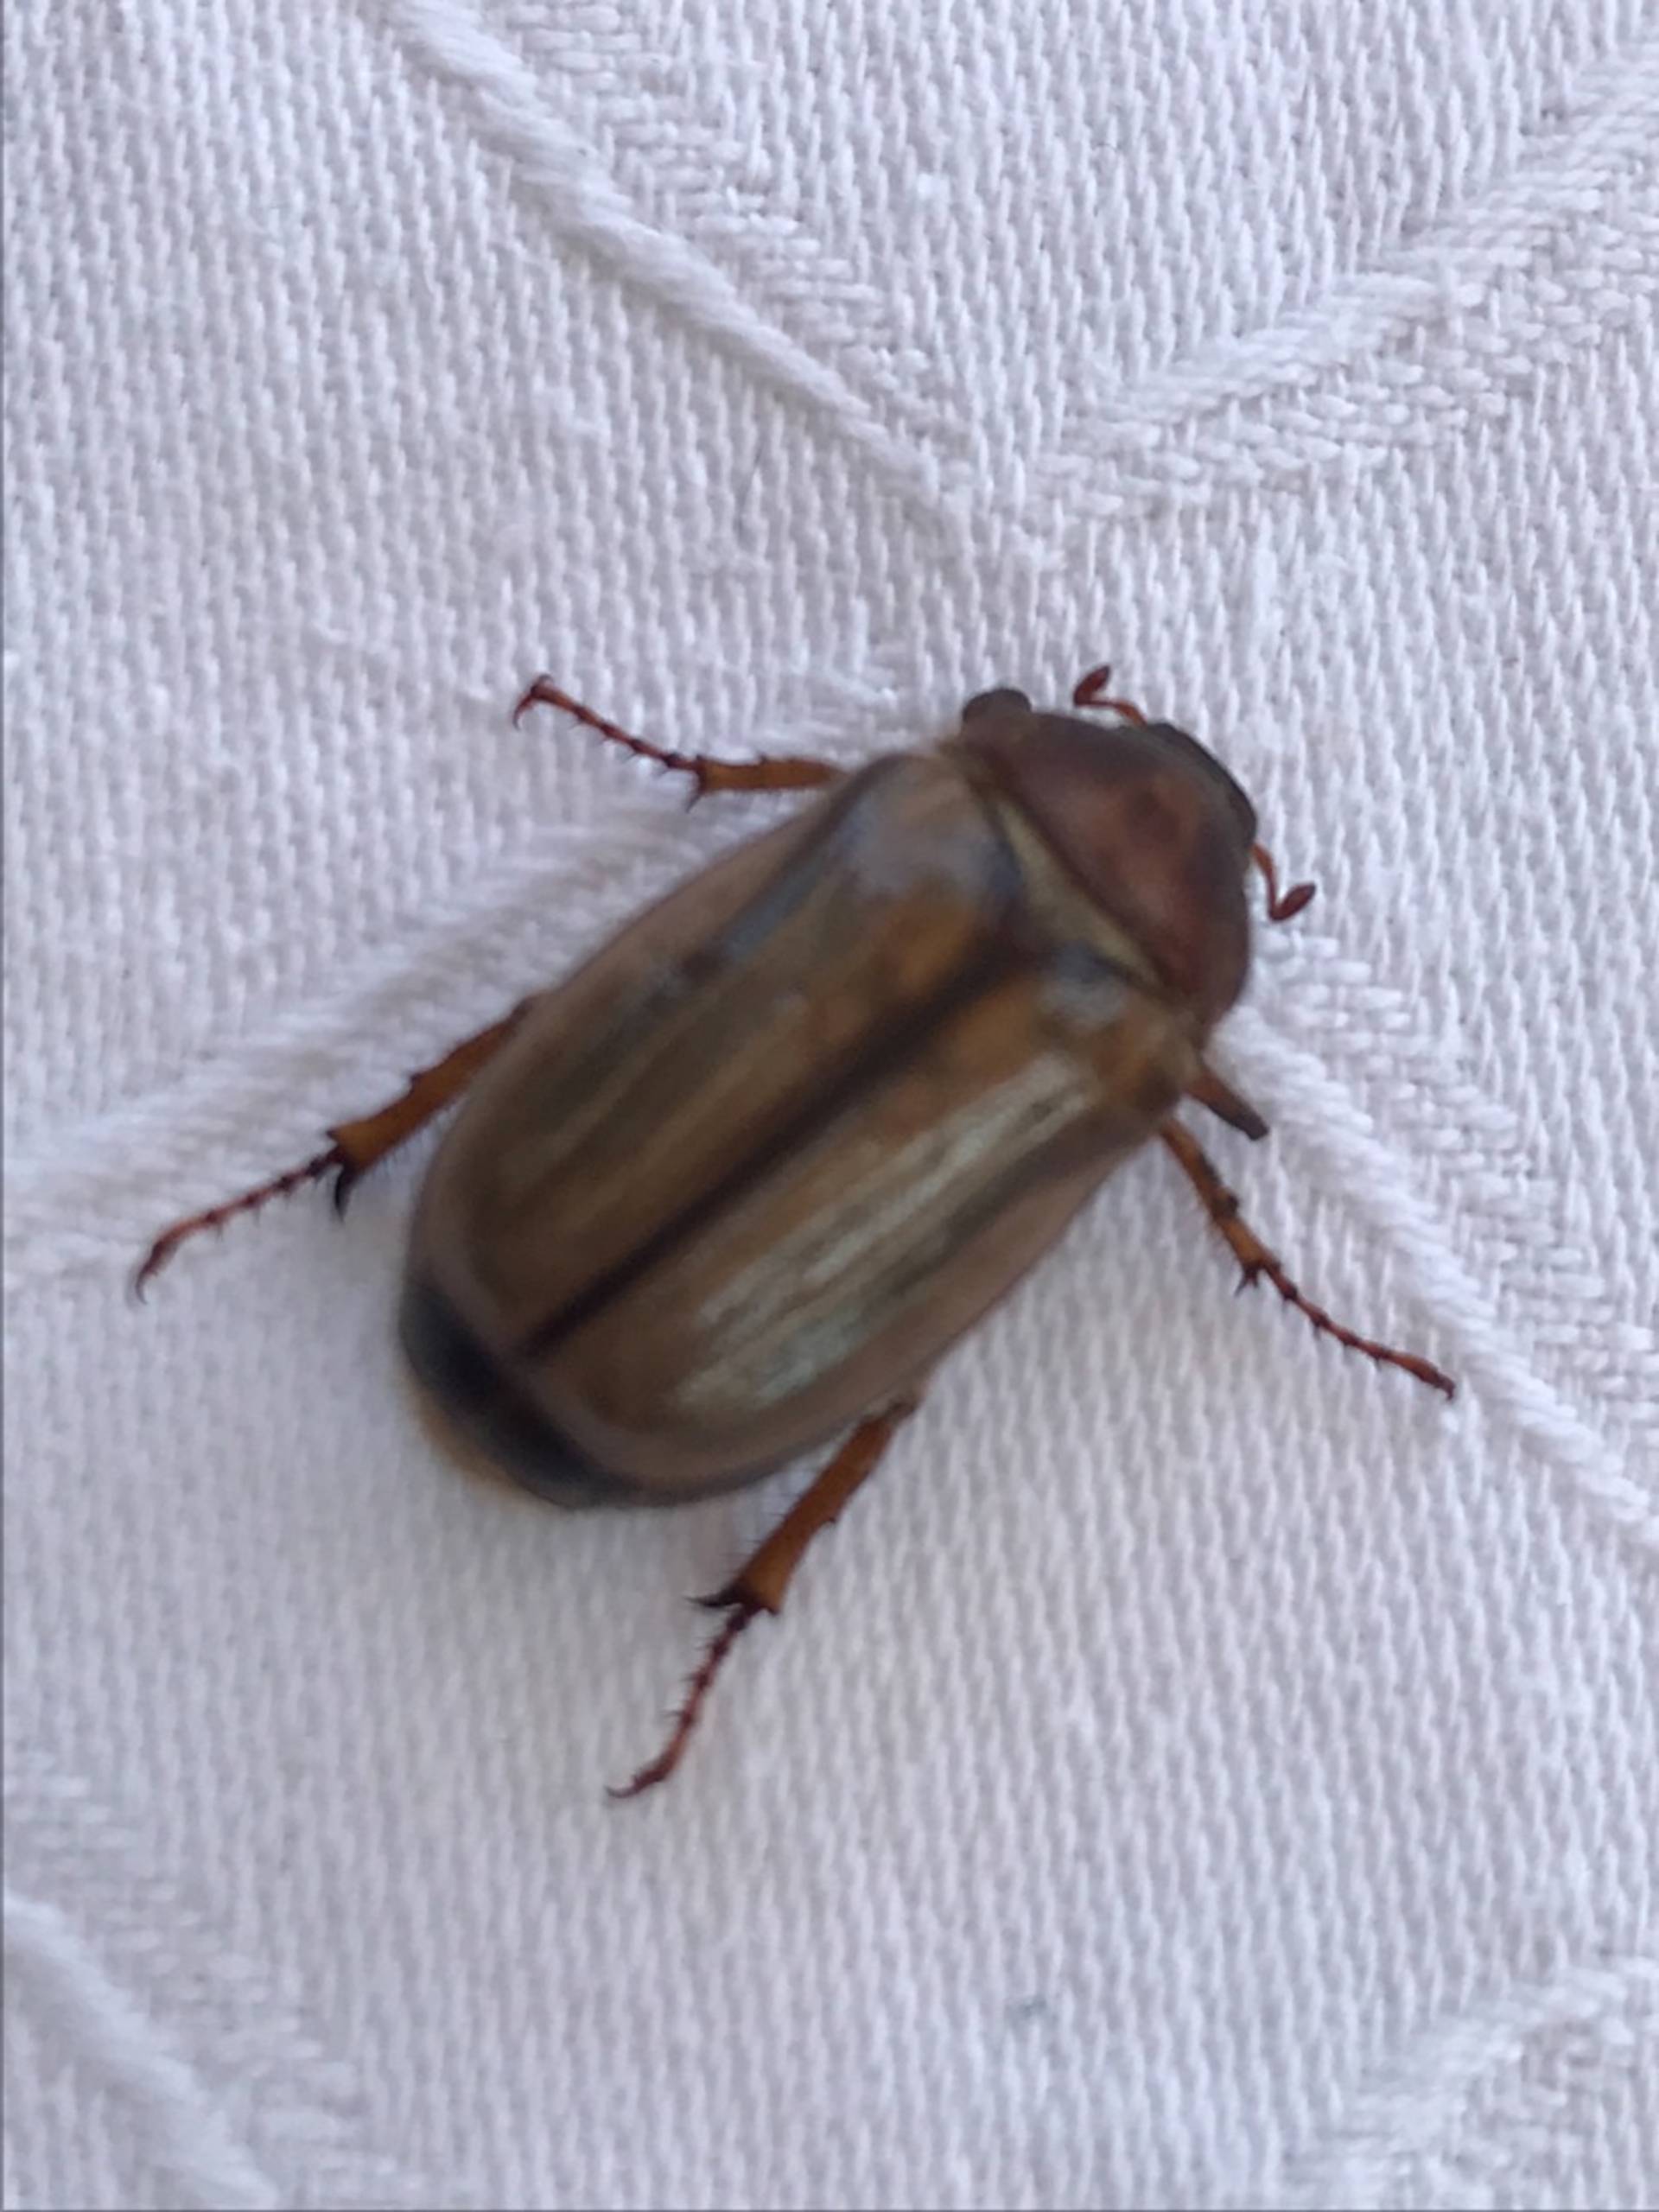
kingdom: Animalia
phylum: Arthropoda
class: Insecta
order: Coleoptera
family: Scarabaeidae
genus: Amphimallon
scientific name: Amphimallon solstitiale
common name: Sankthansoldenborre
